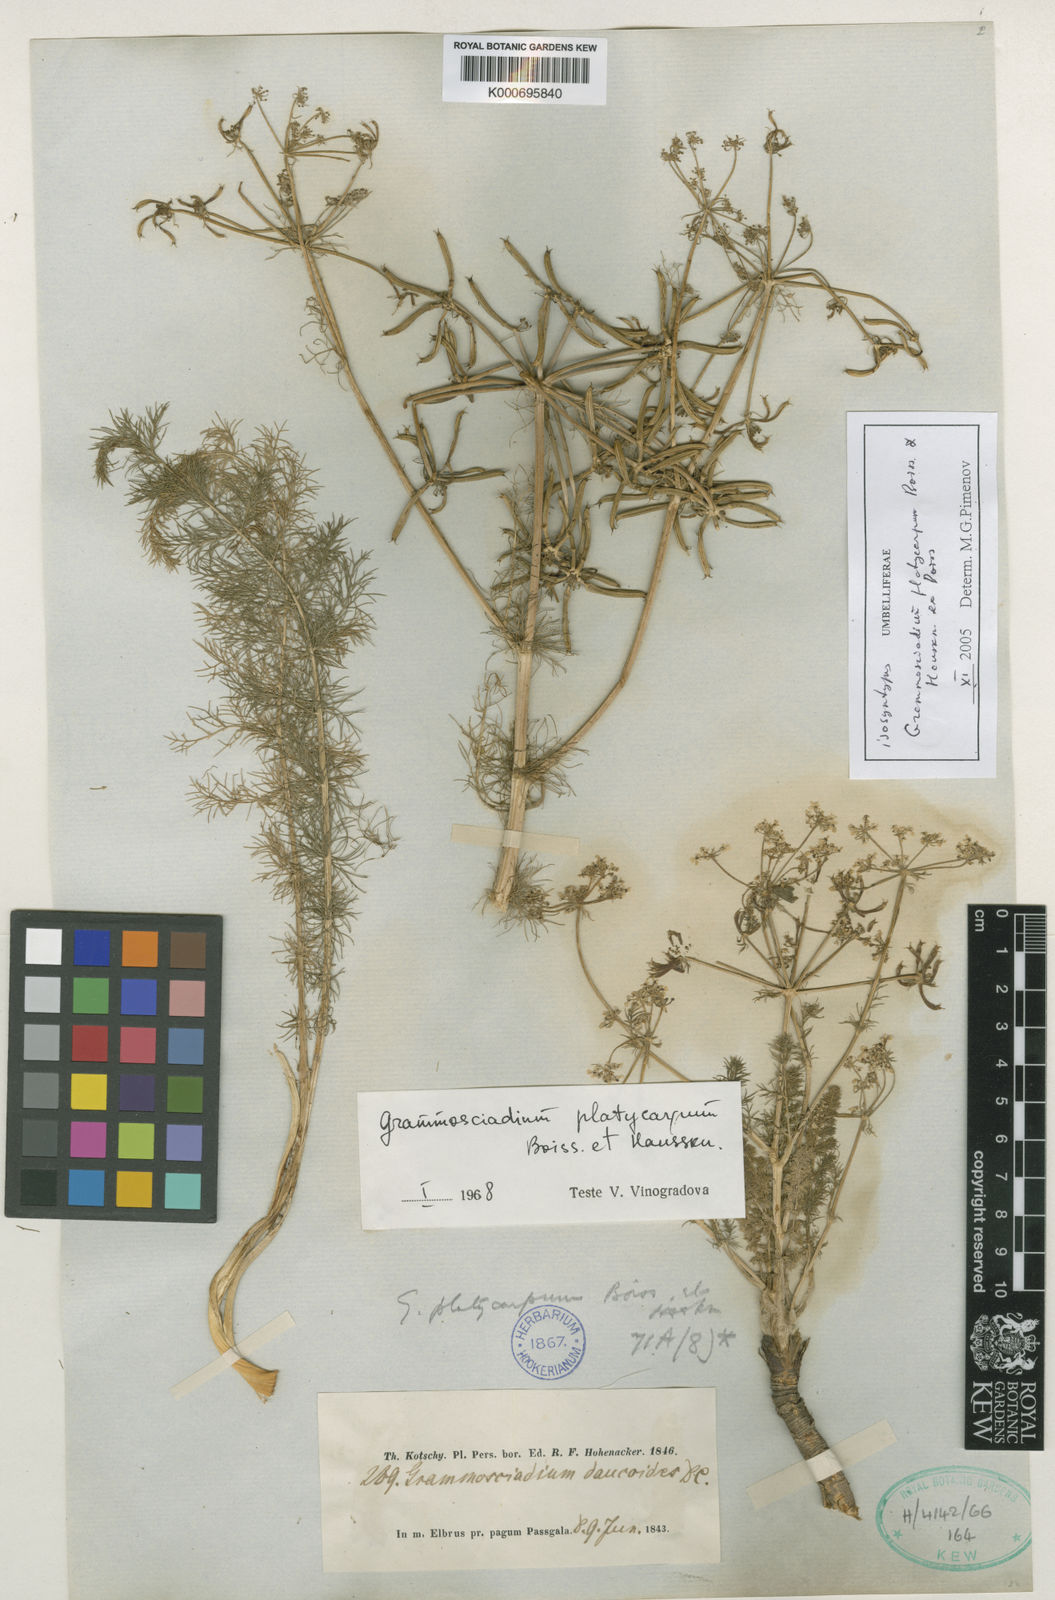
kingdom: Plantae
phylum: Tracheophyta
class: Magnoliopsida
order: Apiales
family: Apiaceae
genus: Caropodium
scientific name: Caropodium platycarpum
